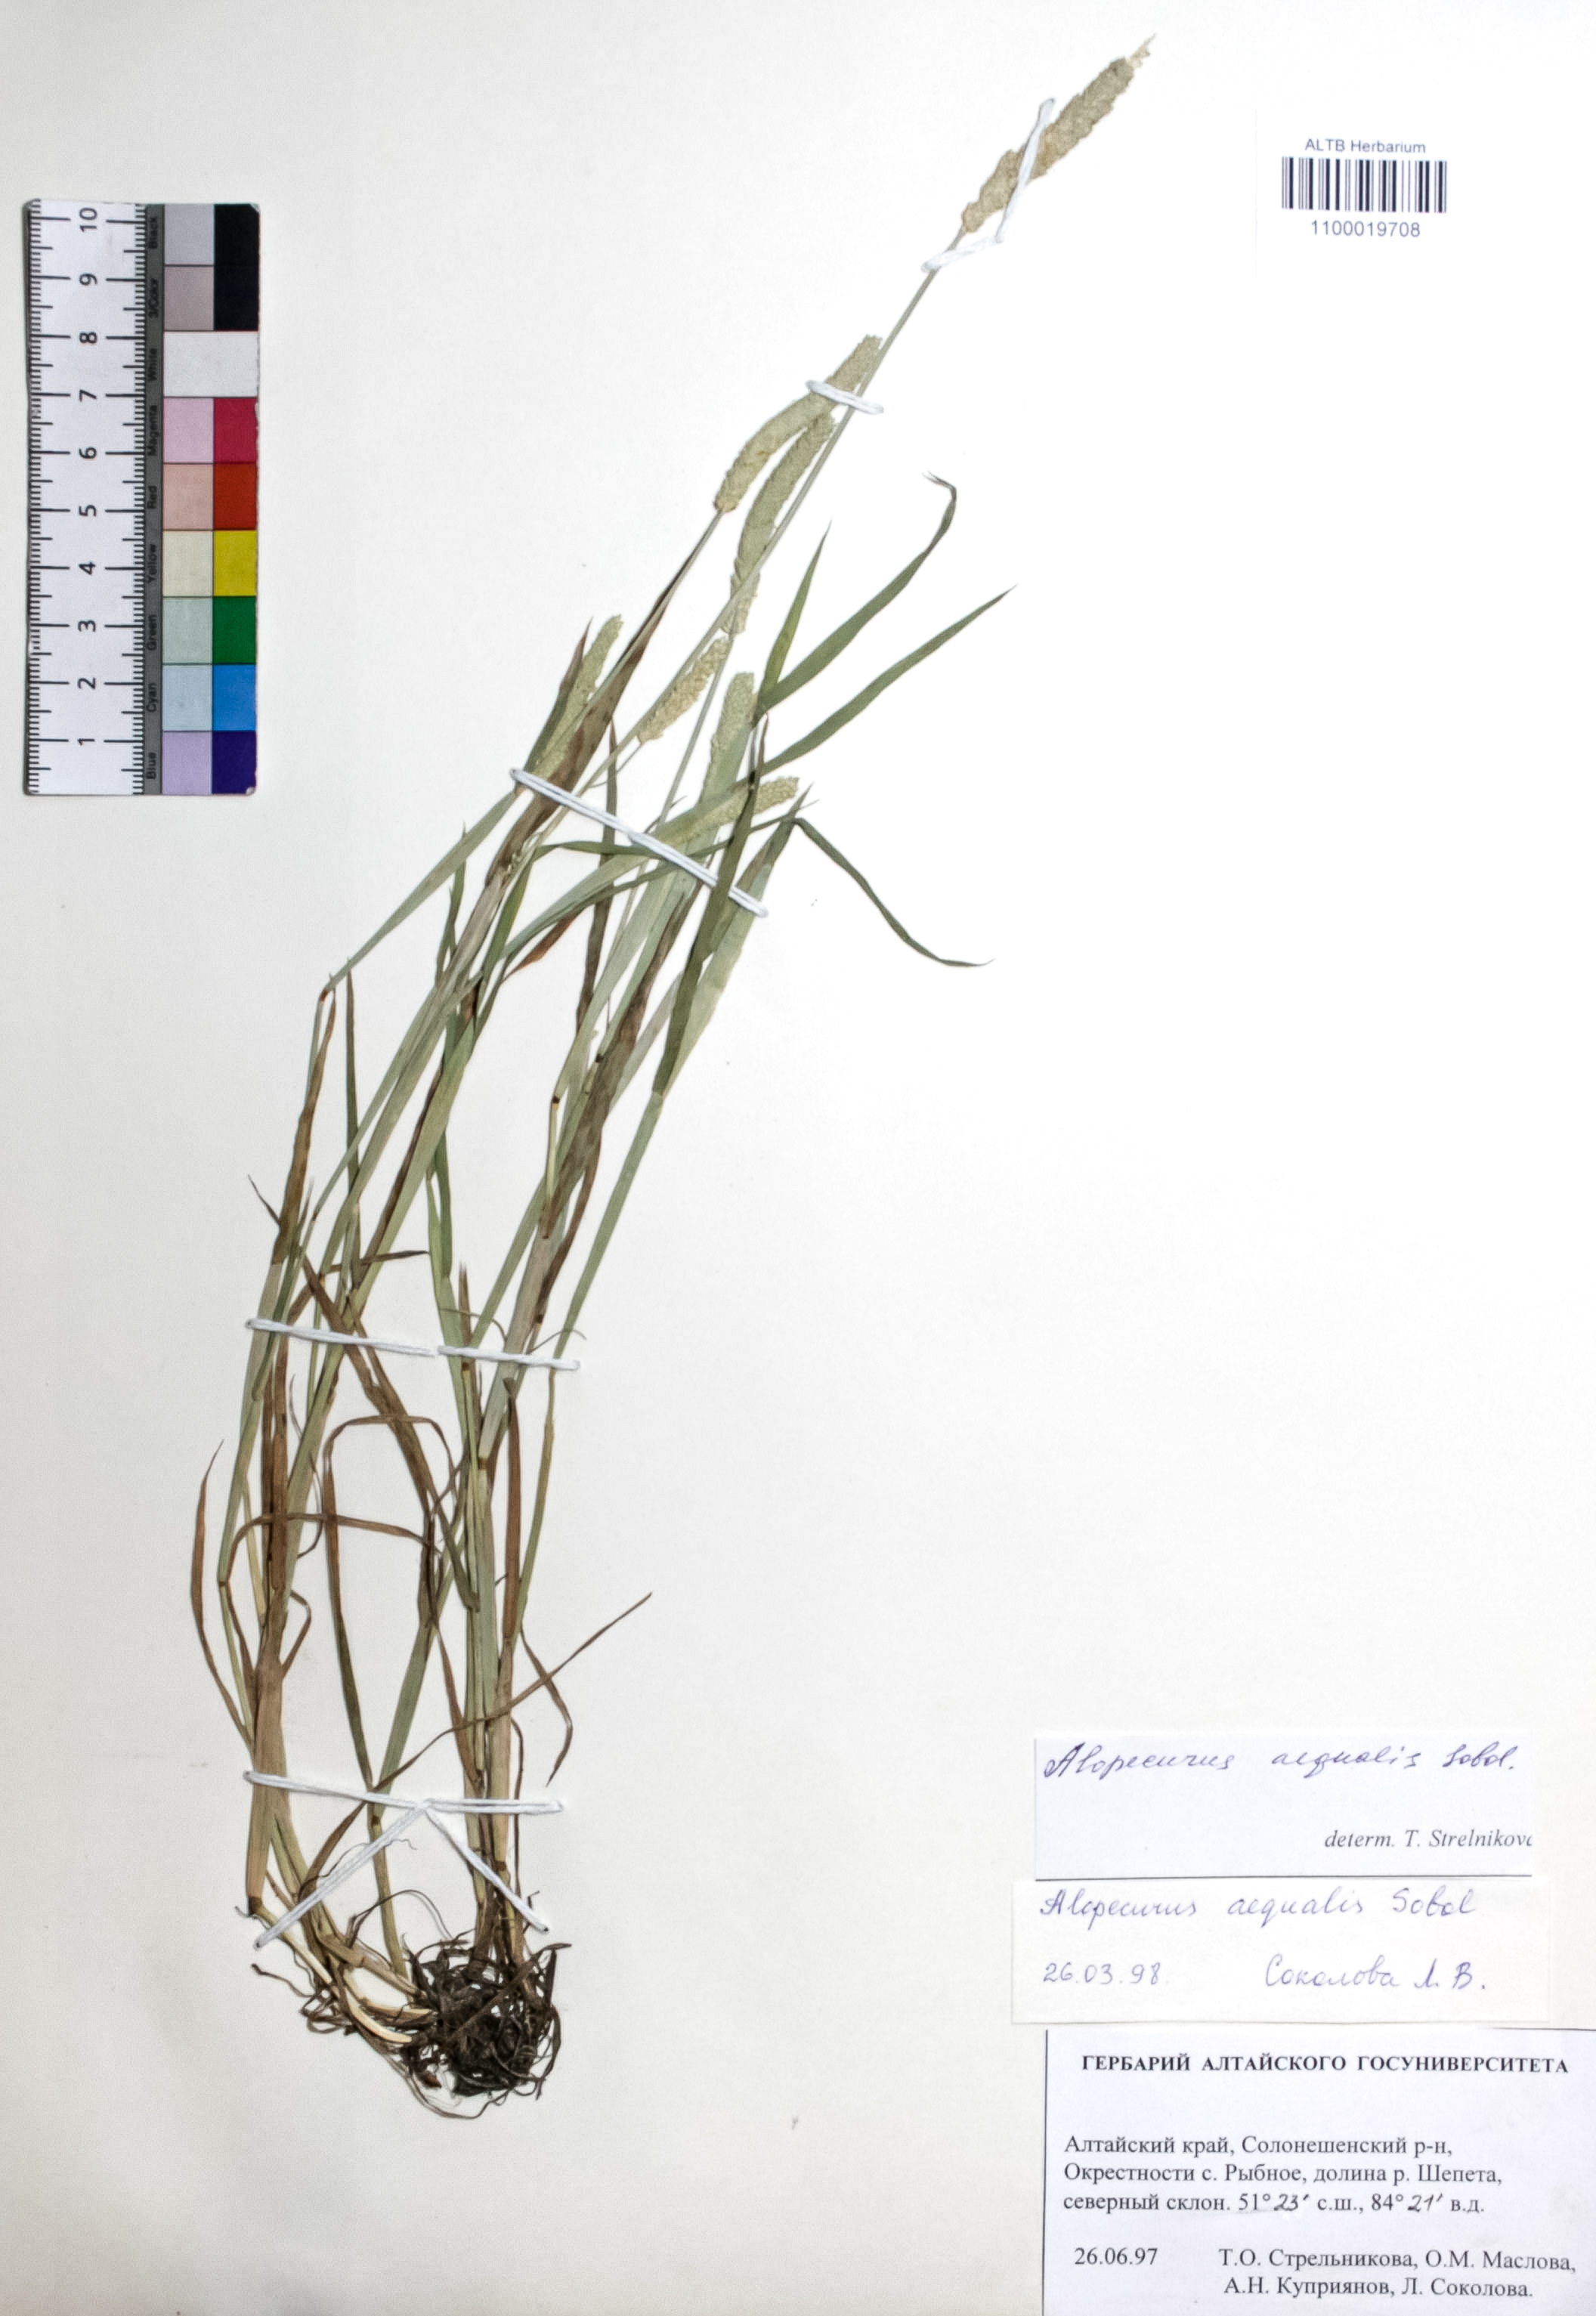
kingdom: Plantae
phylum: Tracheophyta
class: Liliopsida
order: Poales
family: Poaceae
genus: Alopecurus
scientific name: Alopecurus aequalis
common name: Orange foxtail
